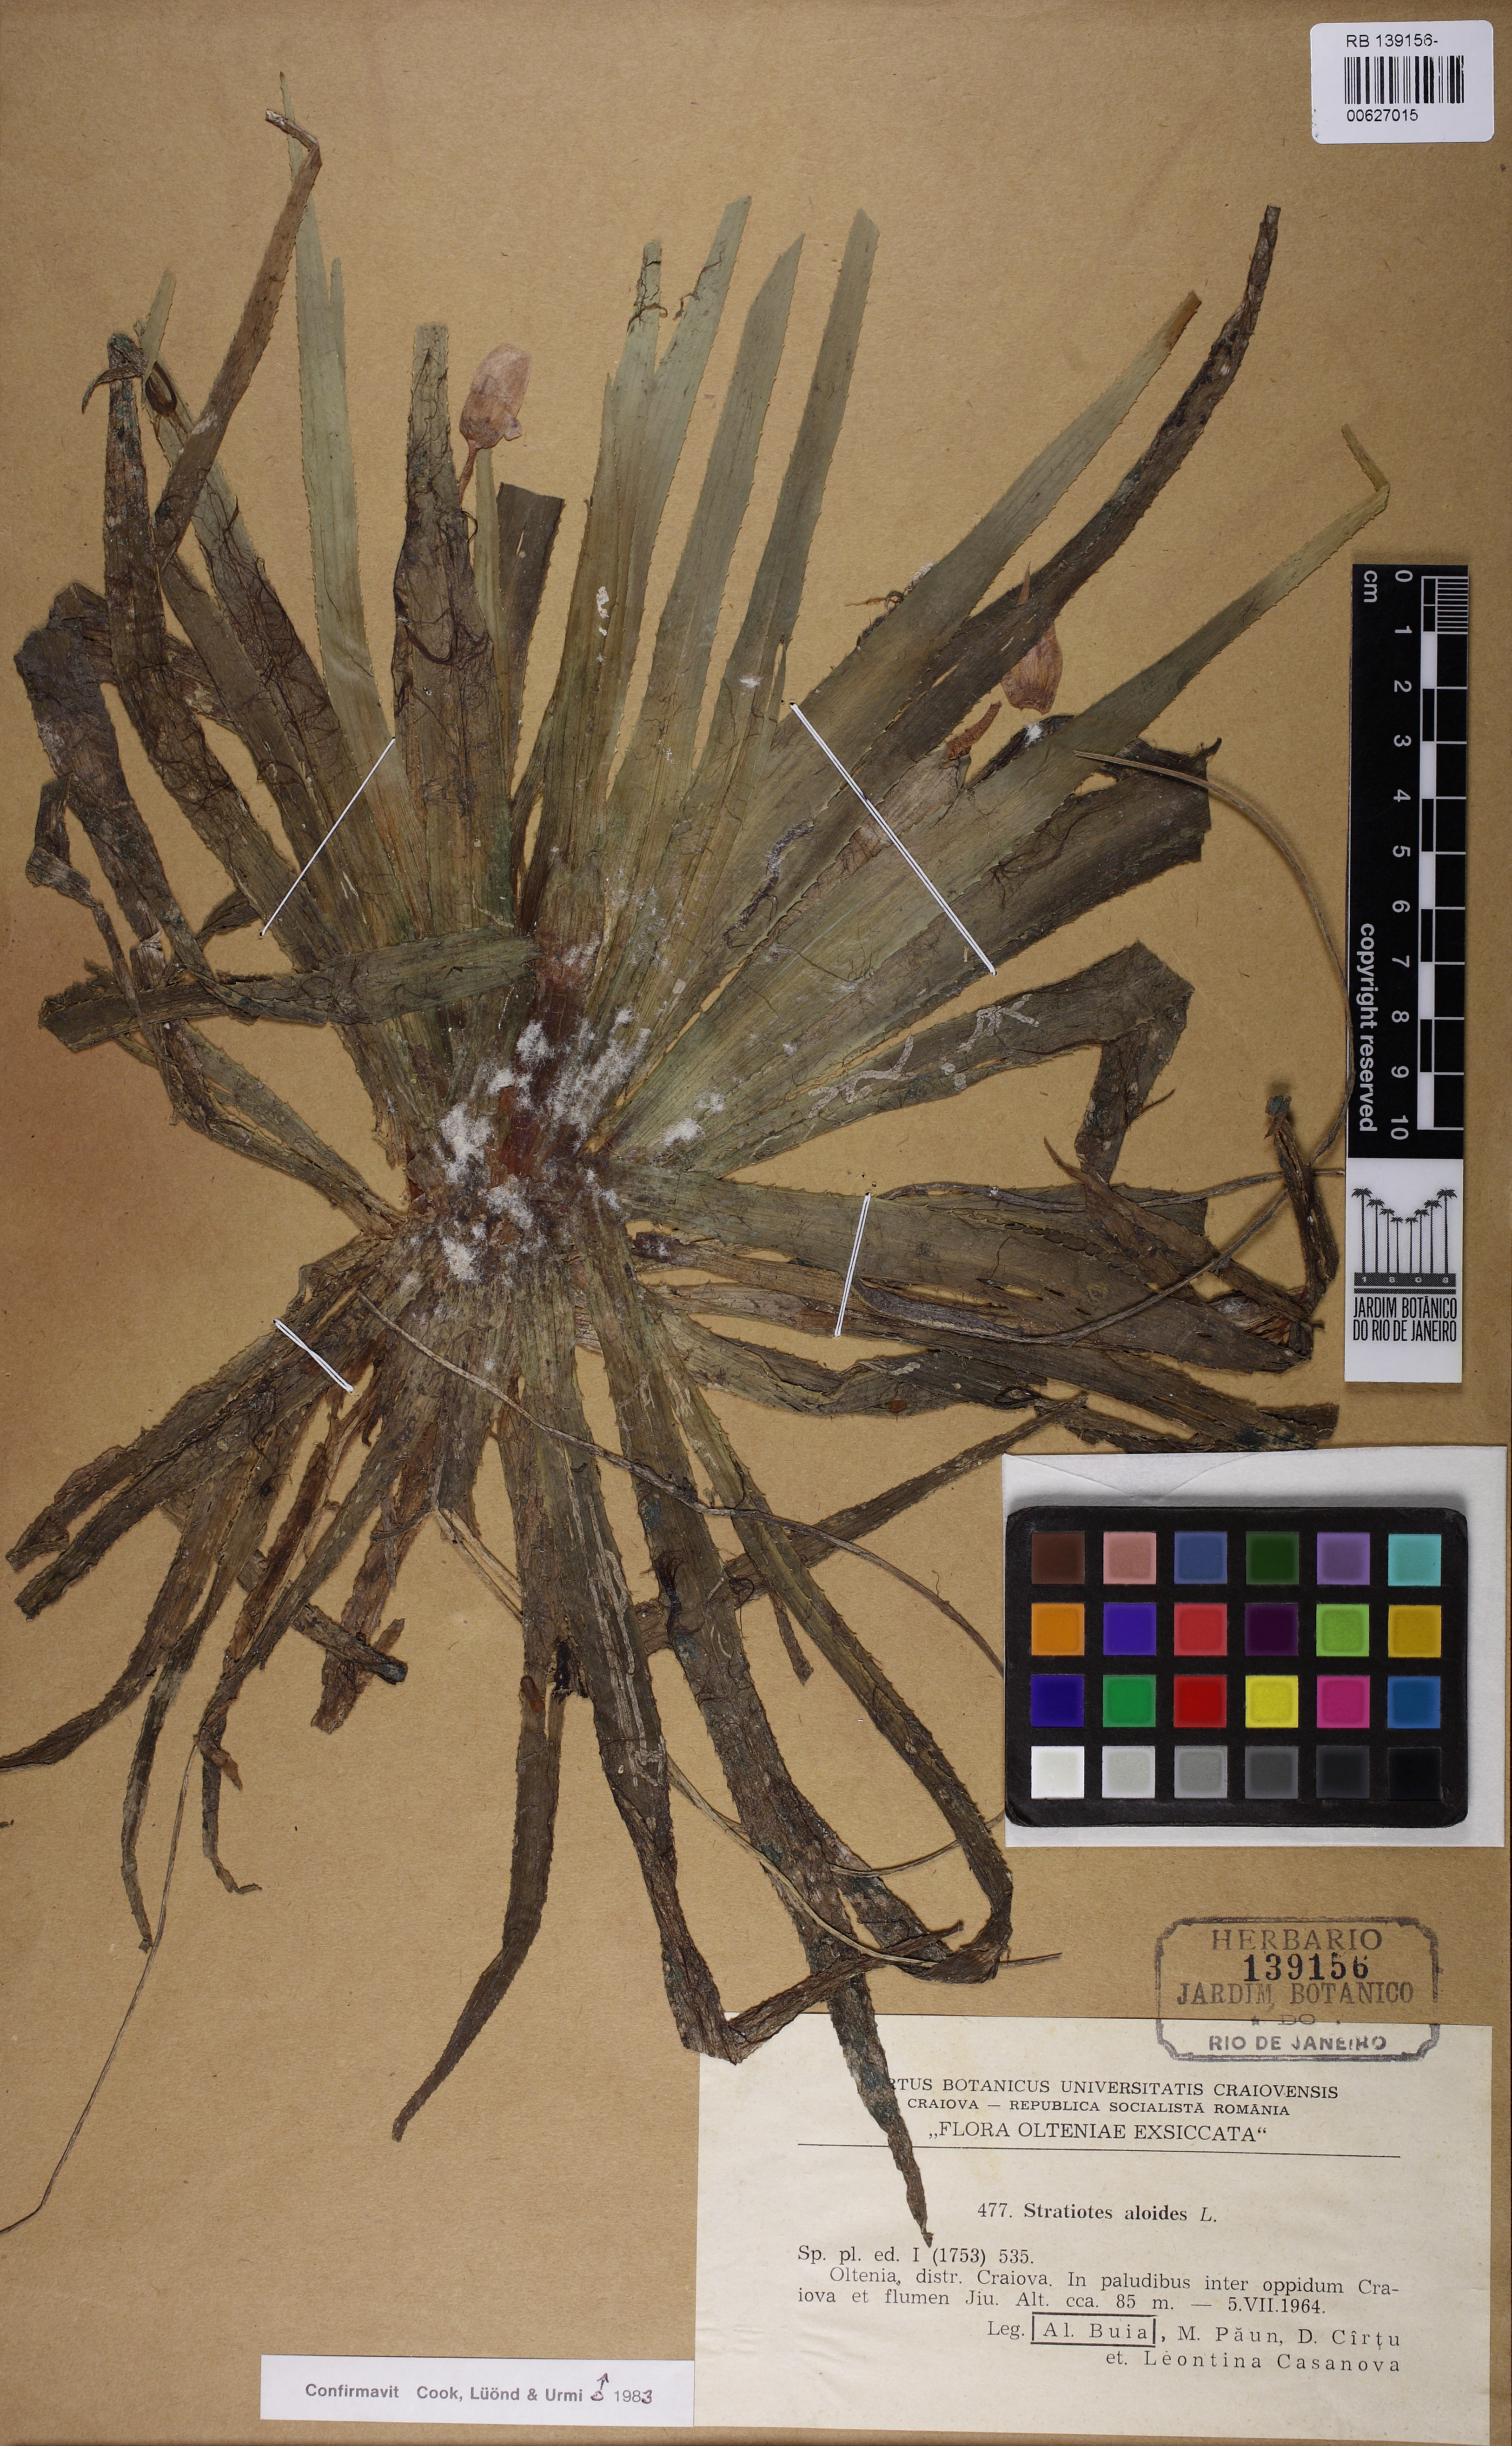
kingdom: Plantae
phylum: Tracheophyta
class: Liliopsida
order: Alismatales
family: Hydrocharitaceae
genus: Stratiotes
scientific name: Stratiotes aloides
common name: Water-soldier
